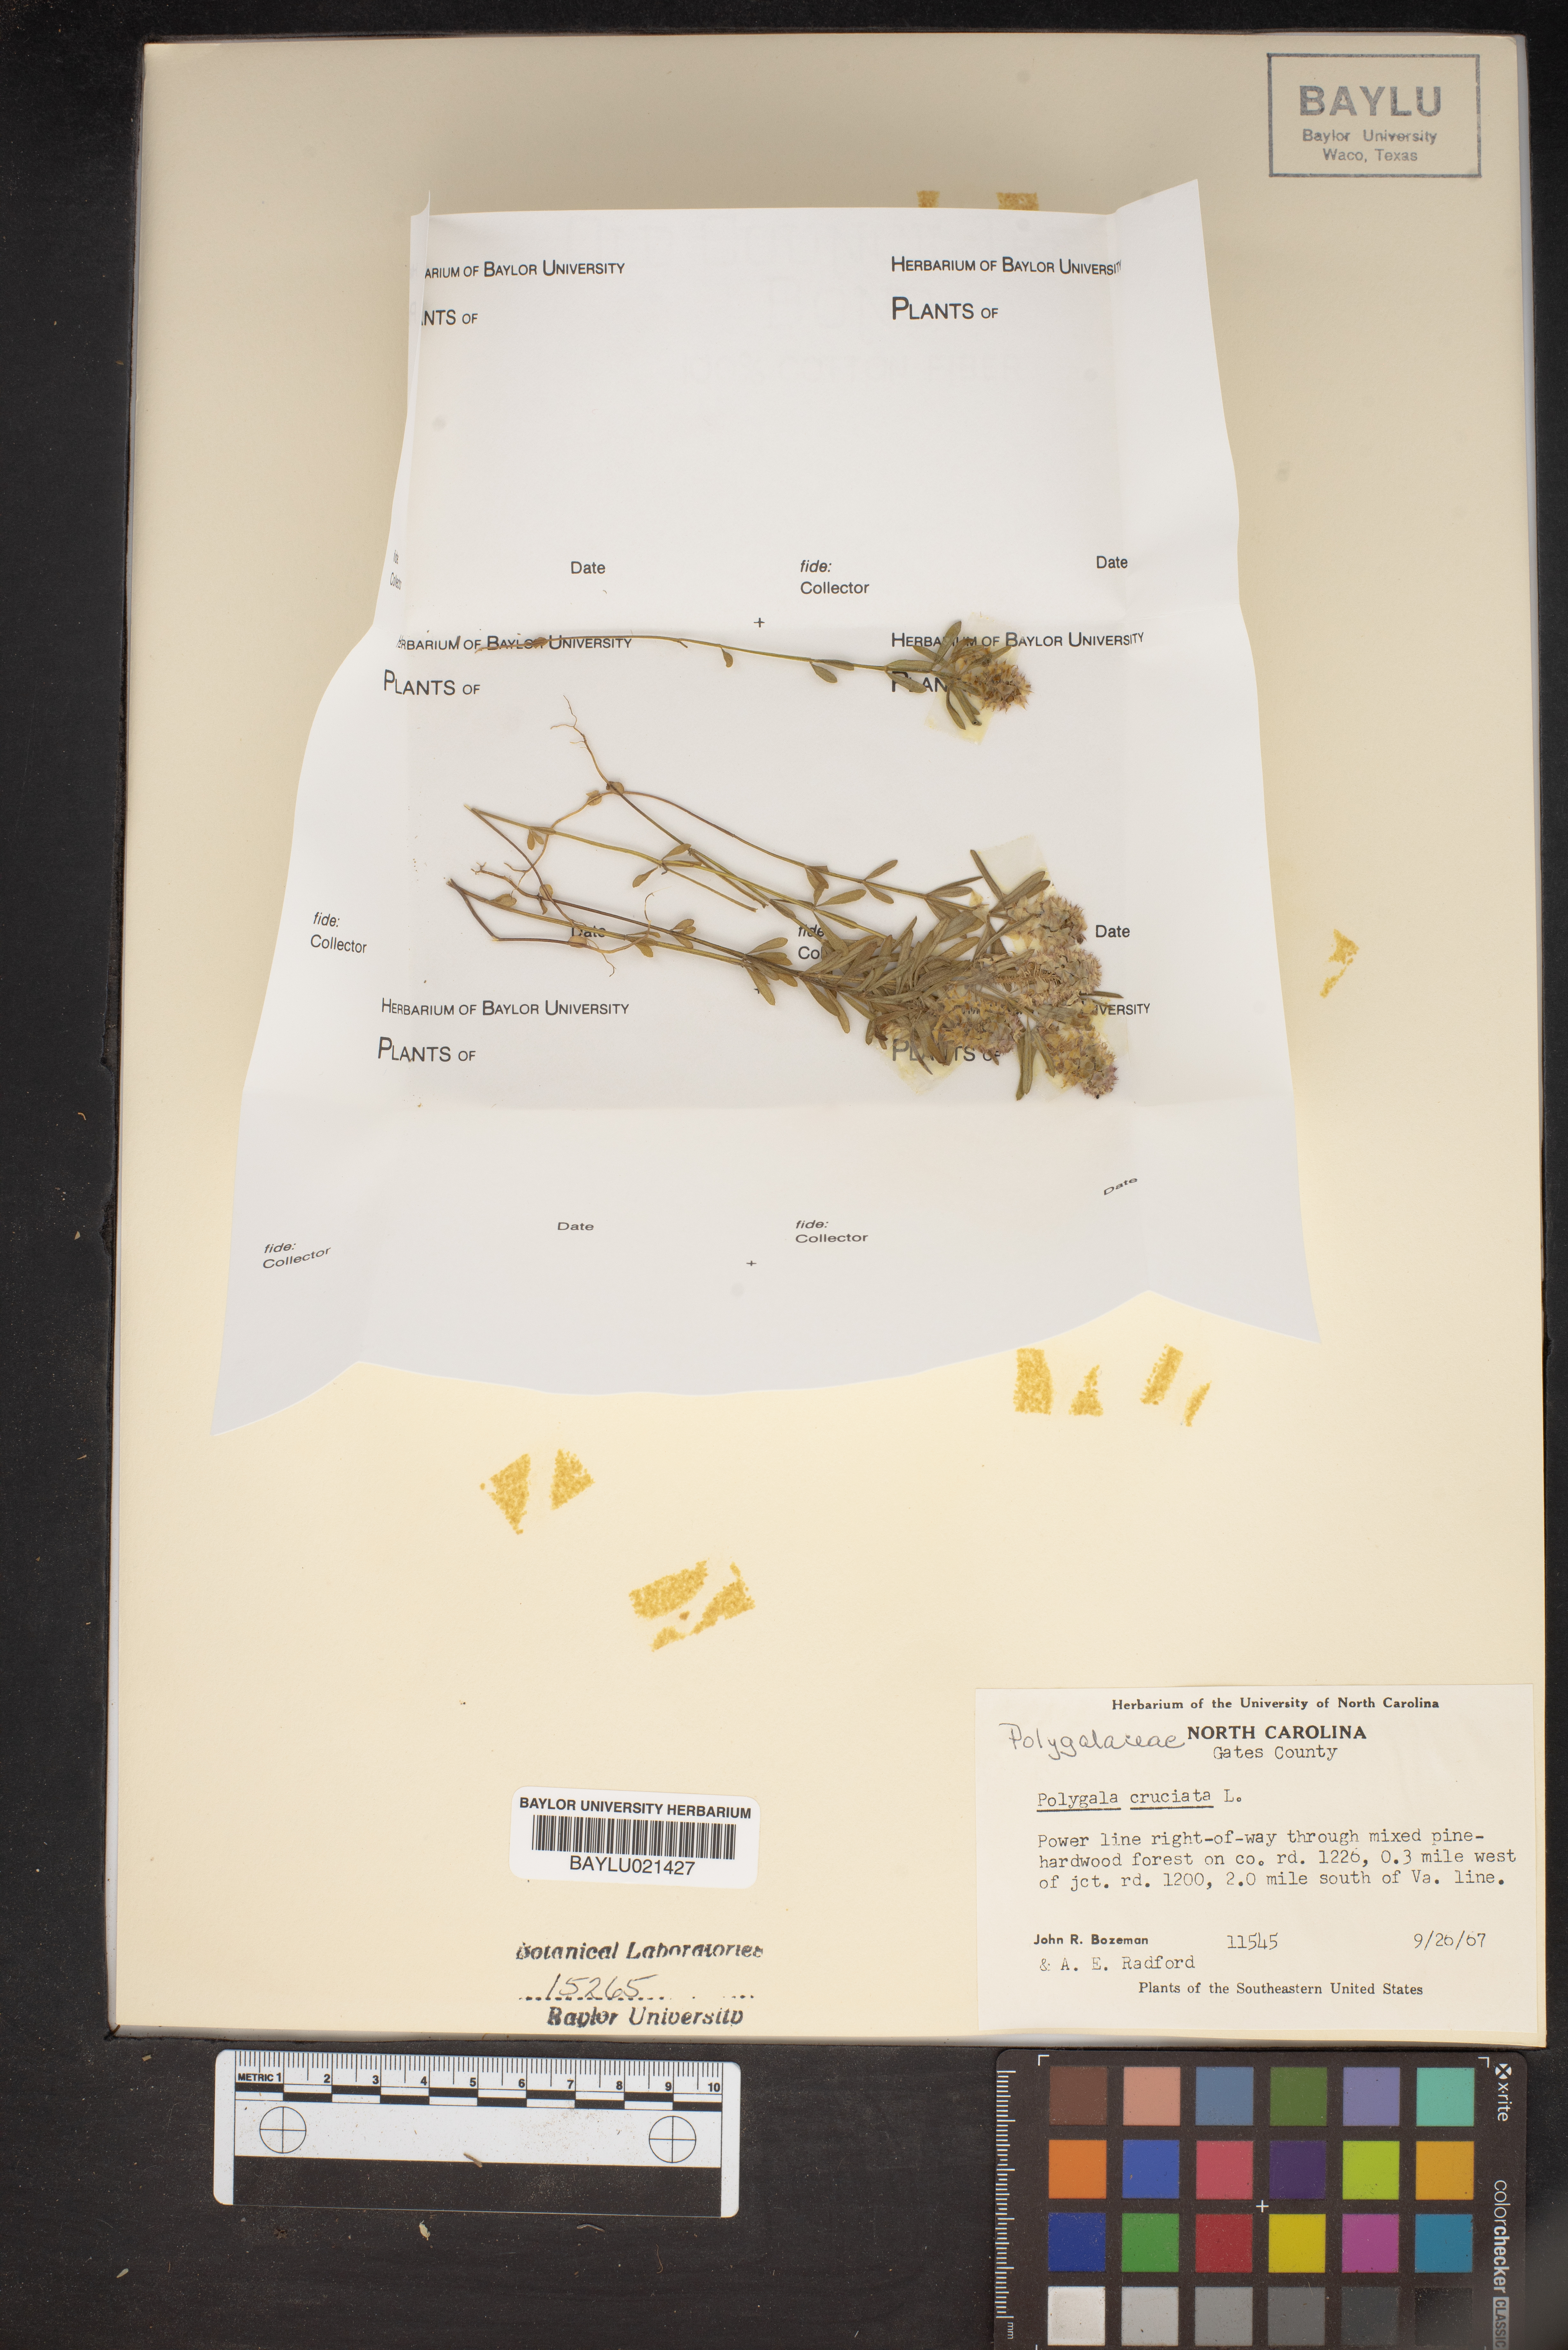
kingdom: Plantae
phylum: Tracheophyta
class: Magnoliopsida
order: Fabales
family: Polygalaceae
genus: Polygala
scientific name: Polygala cruciata
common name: Drumheads
